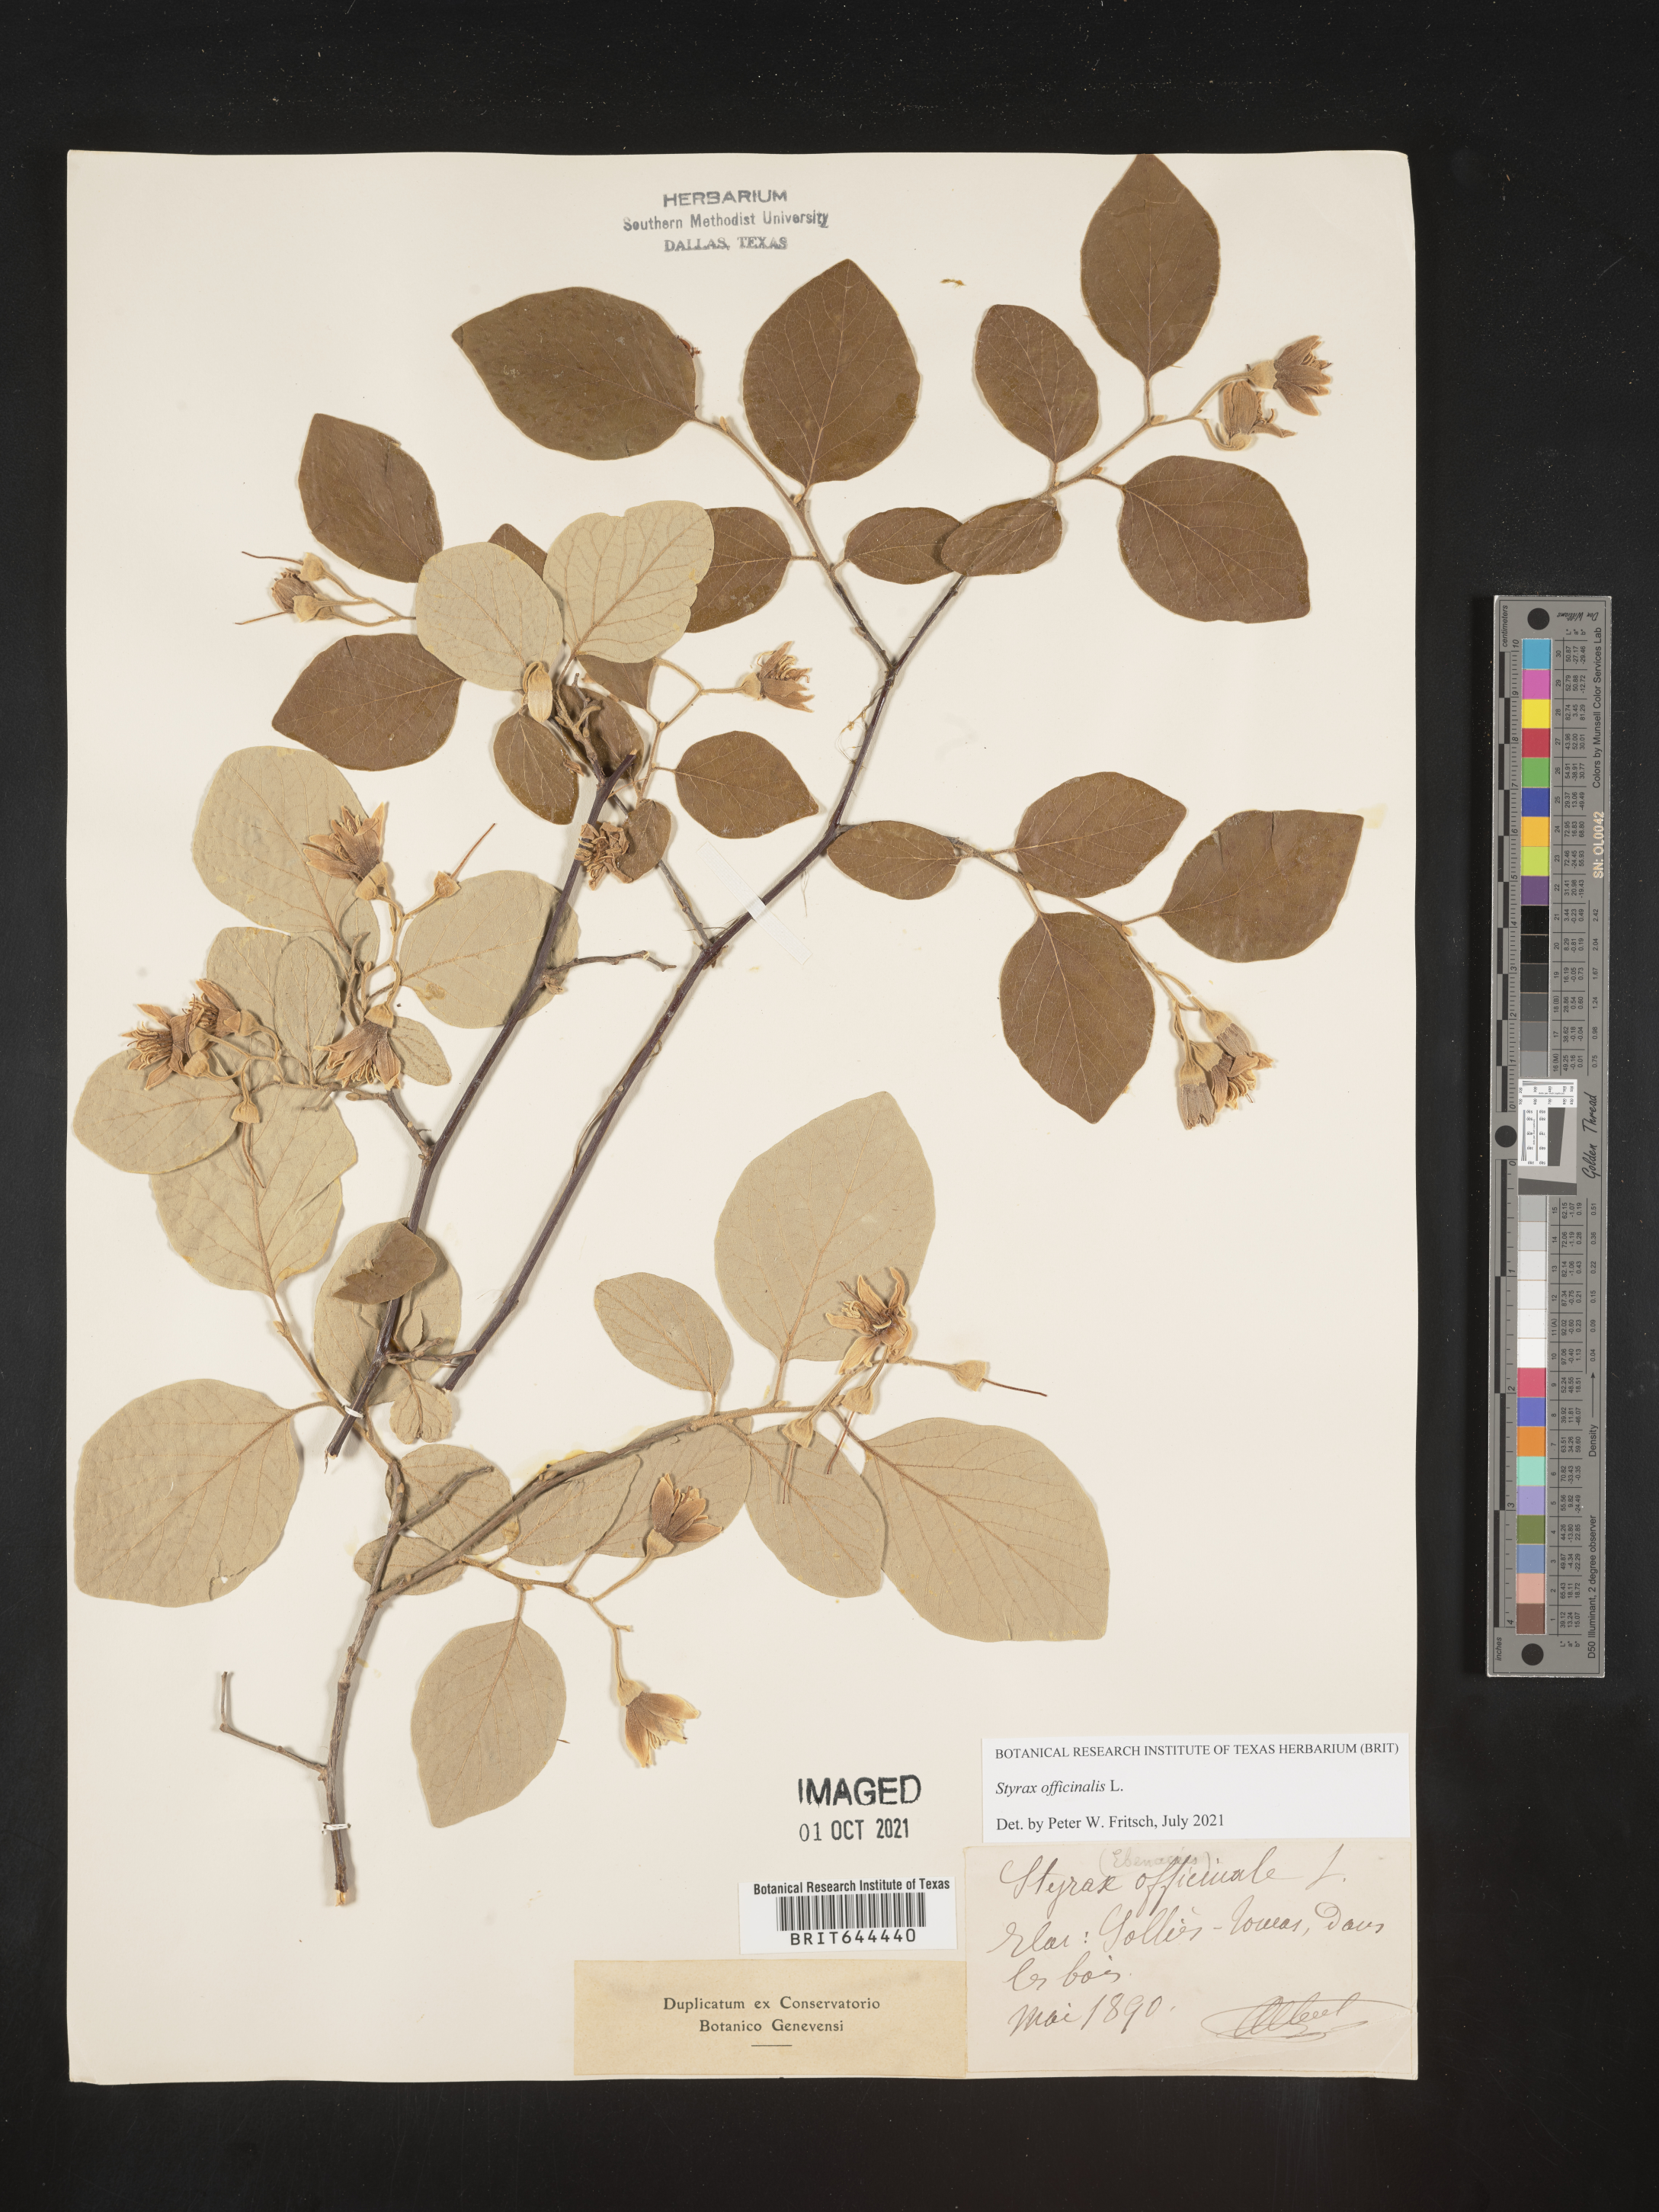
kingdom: Plantae
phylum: Tracheophyta
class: Magnoliopsida
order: Ericales
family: Styracaceae
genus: Styrax
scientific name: Styrax officinalis
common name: Storax
